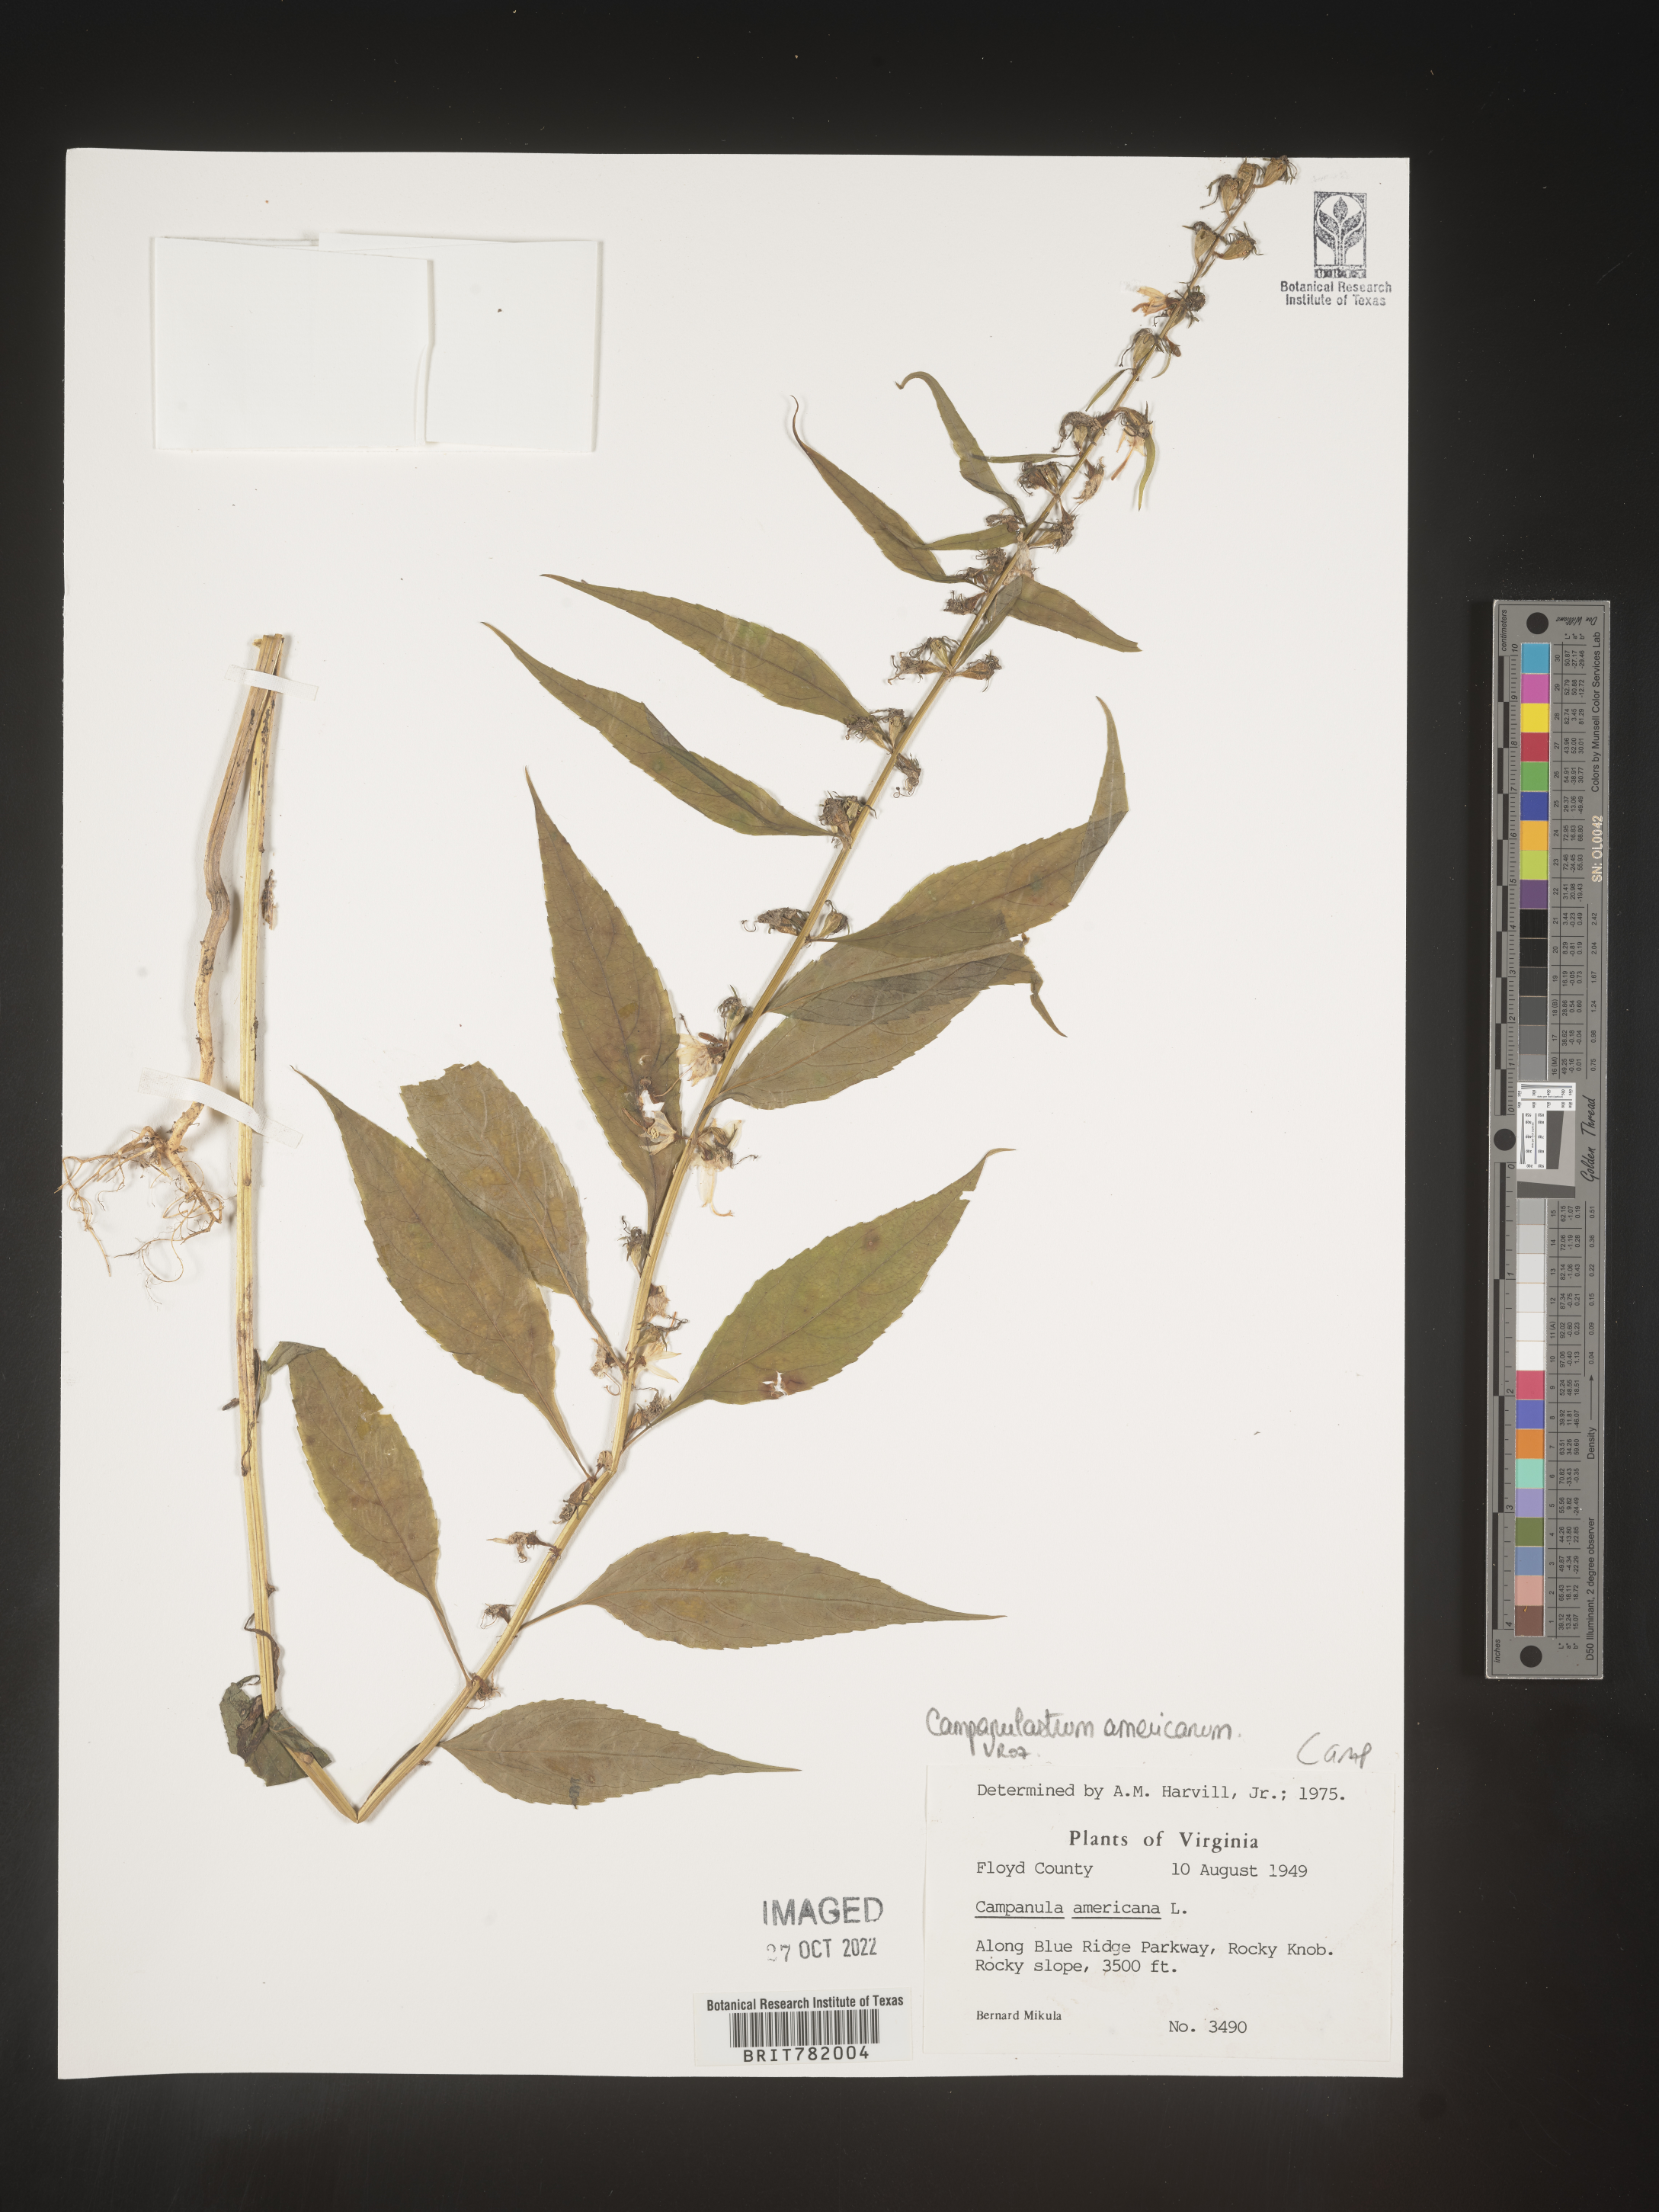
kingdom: Plantae
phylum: Tracheophyta
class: Magnoliopsida
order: Asterales
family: Campanulaceae
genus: Campanulastrum
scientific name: Campanulastrum
